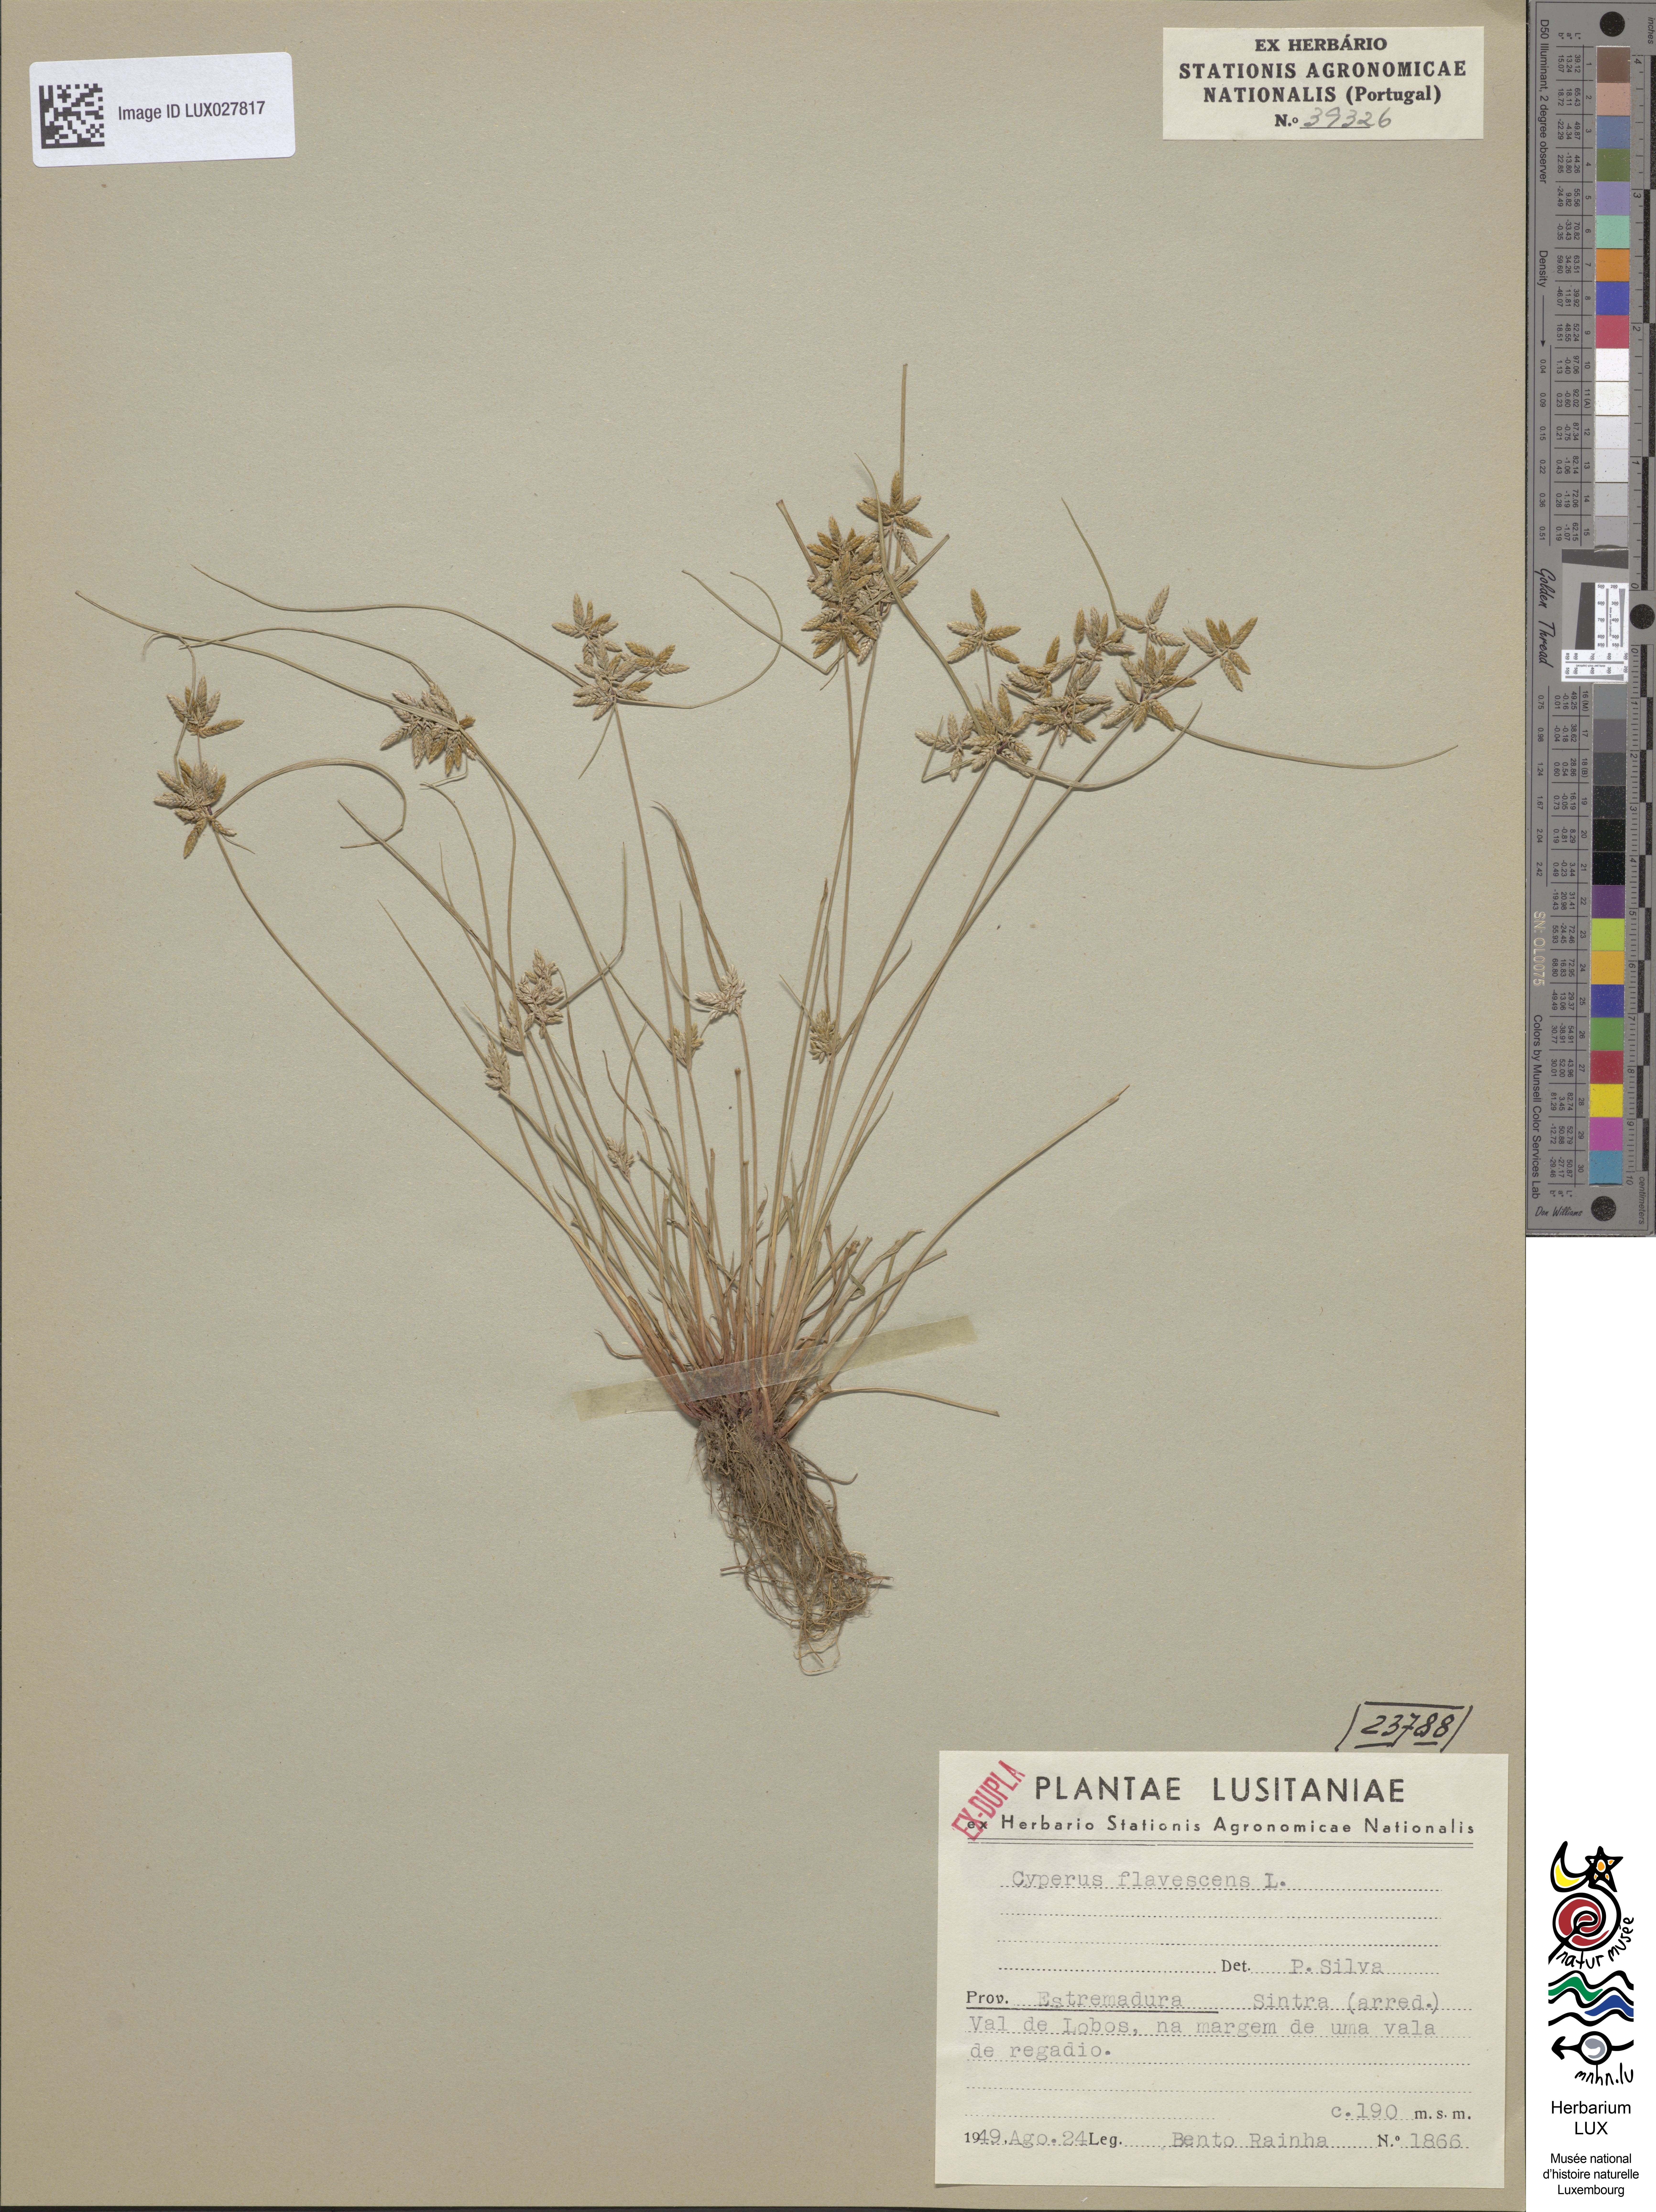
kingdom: Plantae
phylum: Tracheophyta
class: Liliopsida
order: Poales
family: Cyperaceae
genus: Cyperus
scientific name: Cyperus flavescens
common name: Yellow galingale
